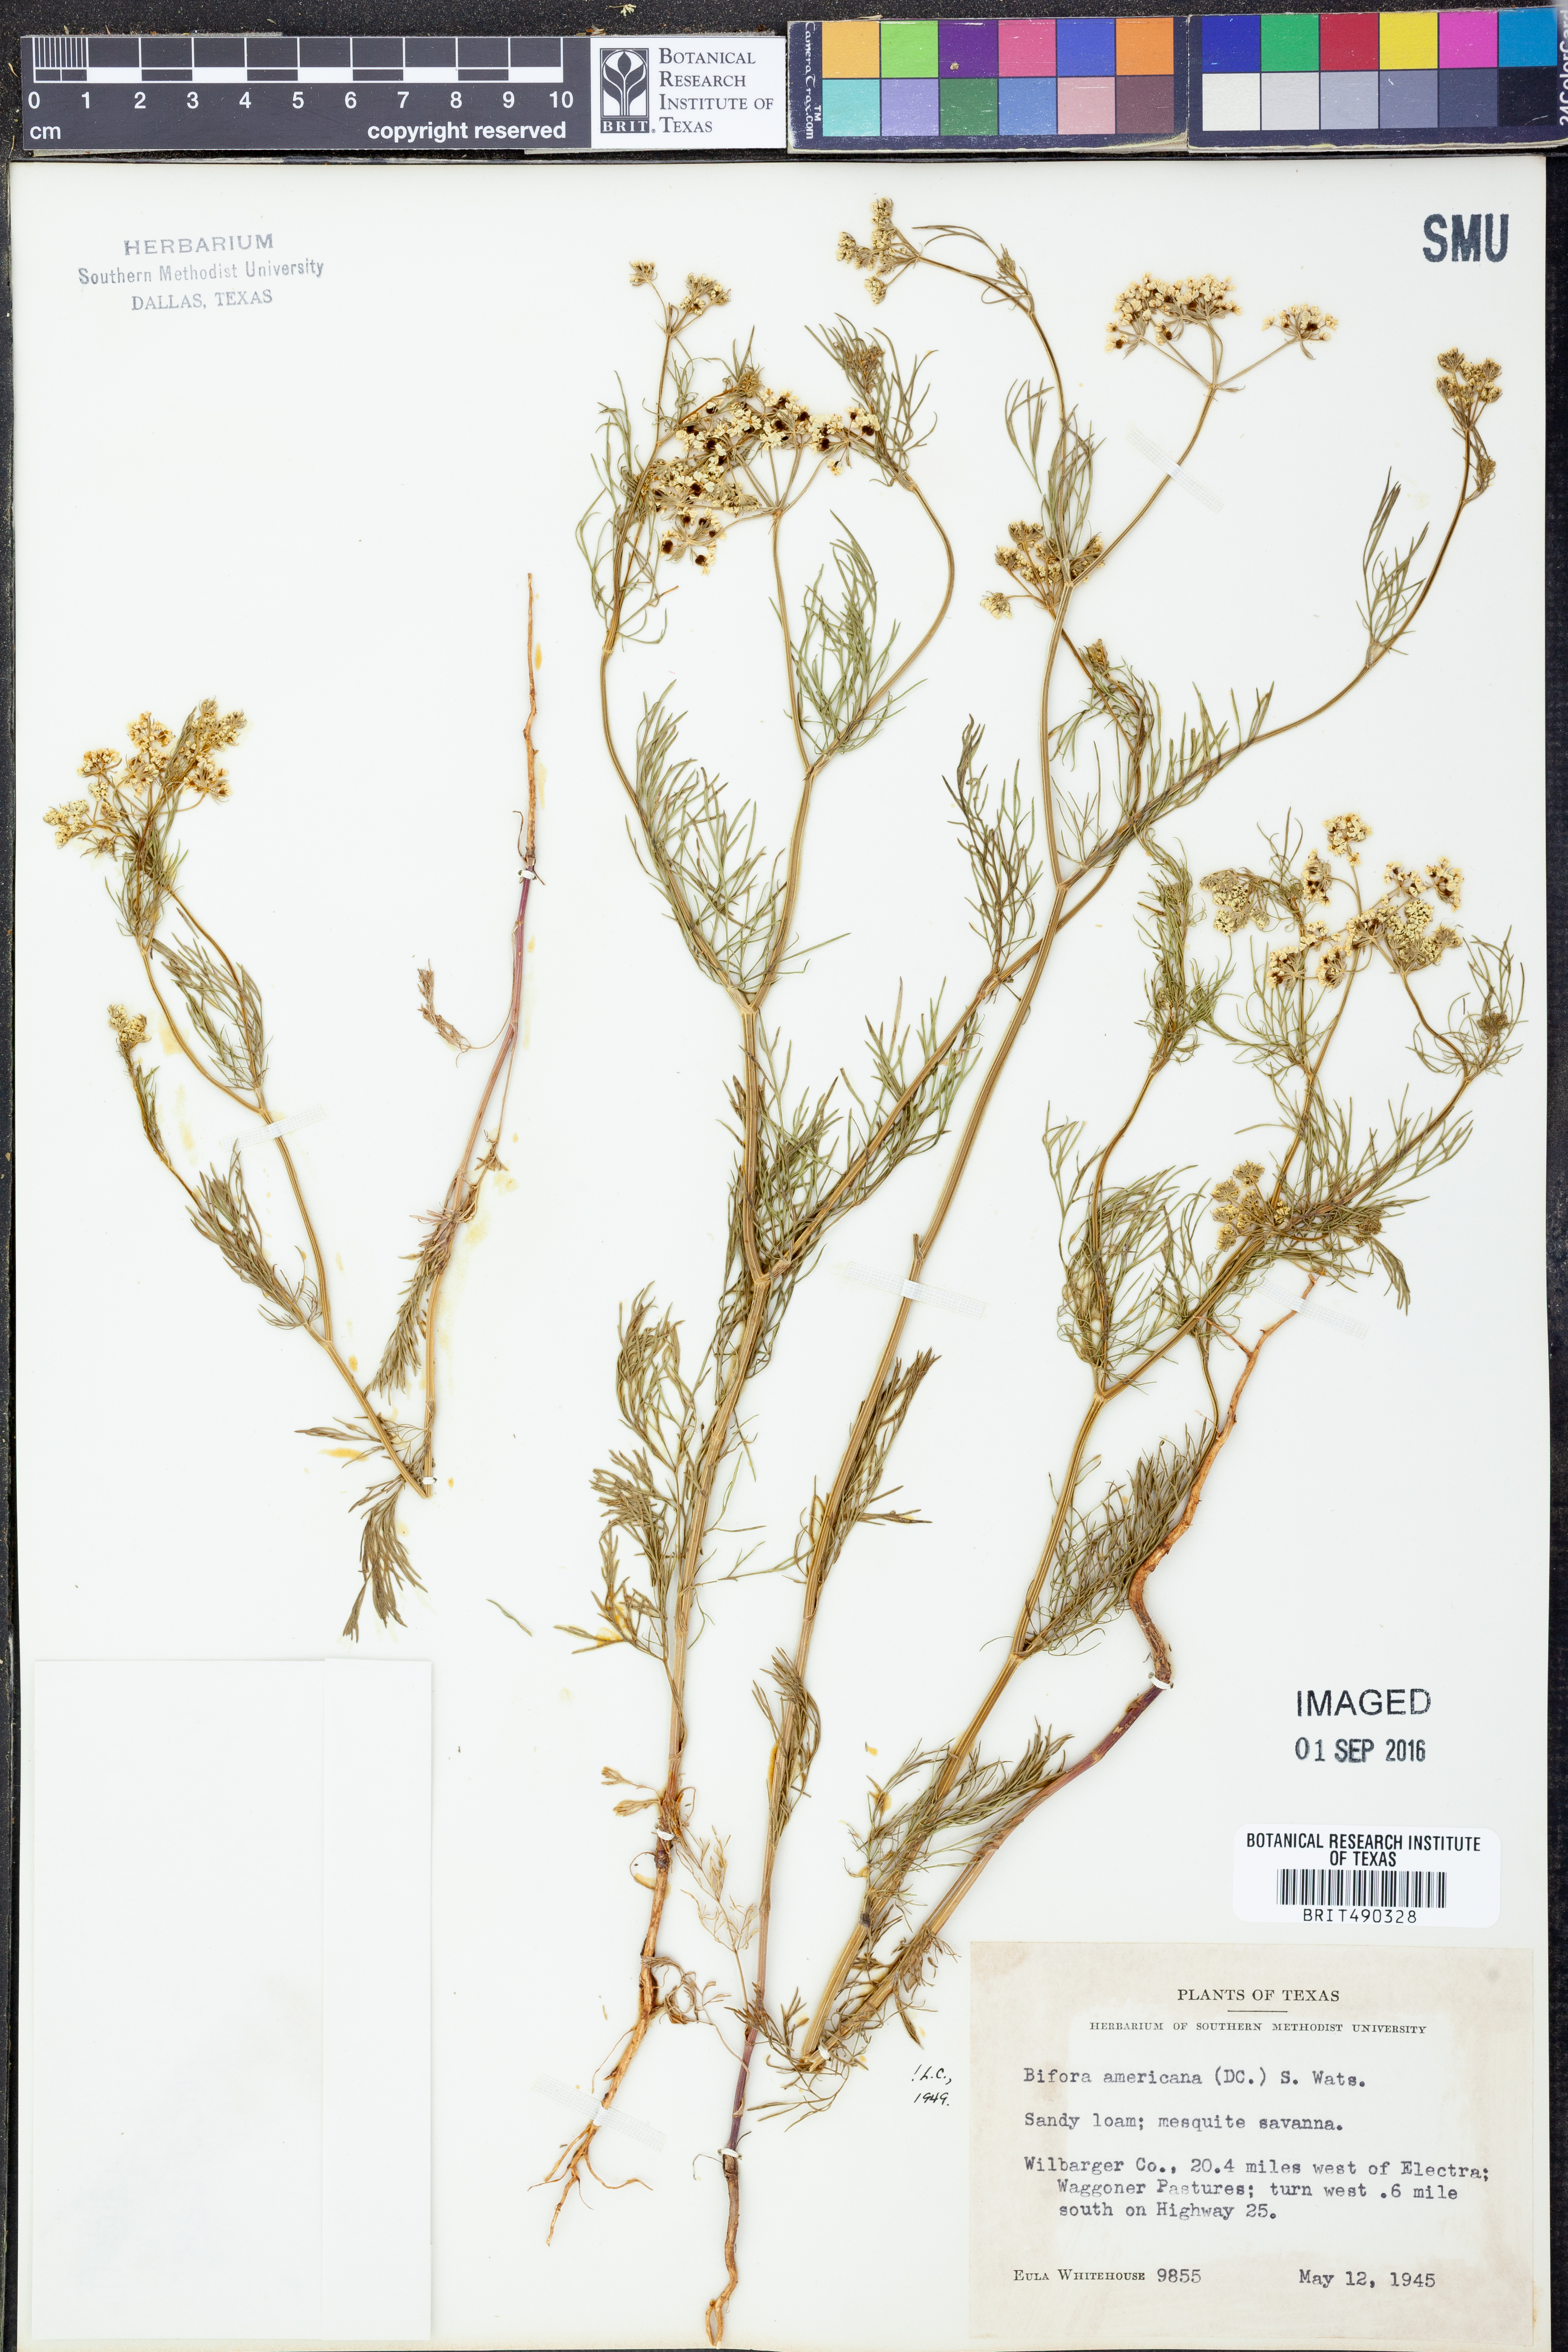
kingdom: Plantae
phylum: Tracheophyta
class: Magnoliopsida
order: Apiales
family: Apiaceae
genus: Atrema
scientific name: Atrema americanum
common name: Prairie-bishop
